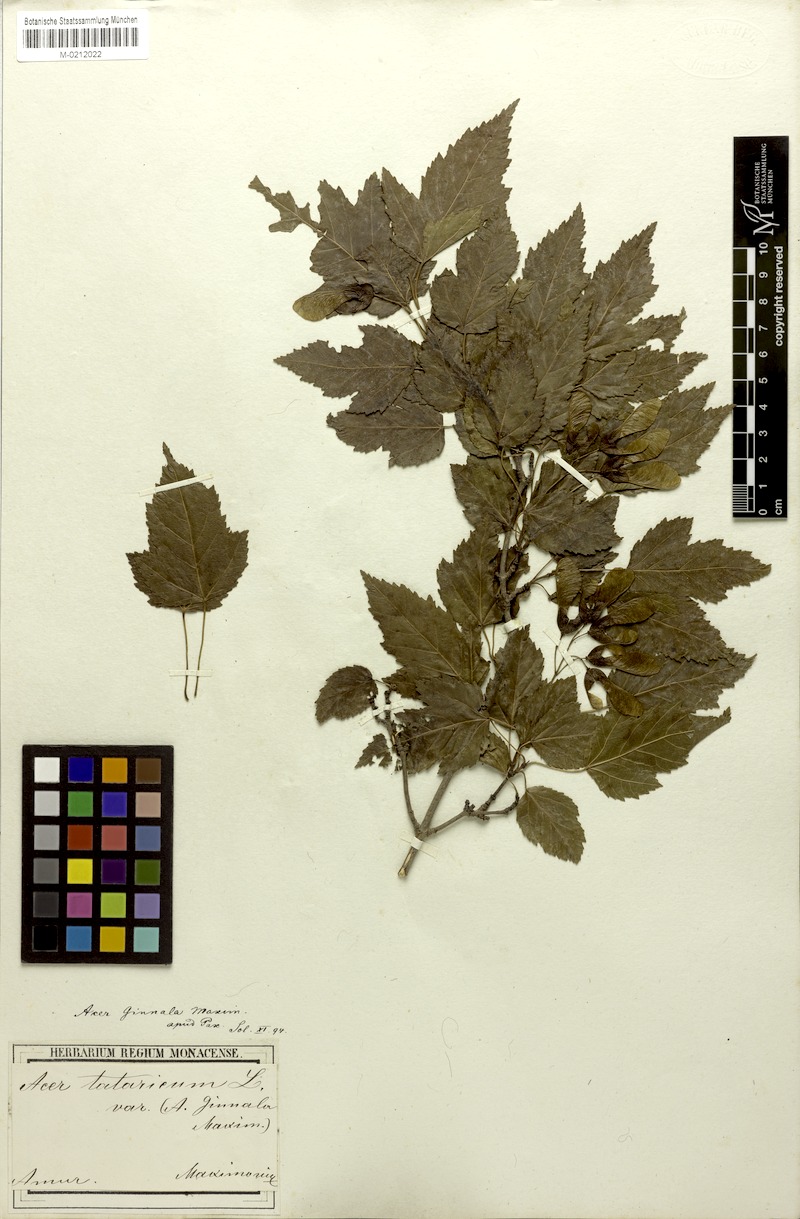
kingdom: Plantae
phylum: Tracheophyta
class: Magnoliopsida
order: Sapindales
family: Sapindaceae
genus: Acer
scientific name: Acer tataricum
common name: Tartar maple
